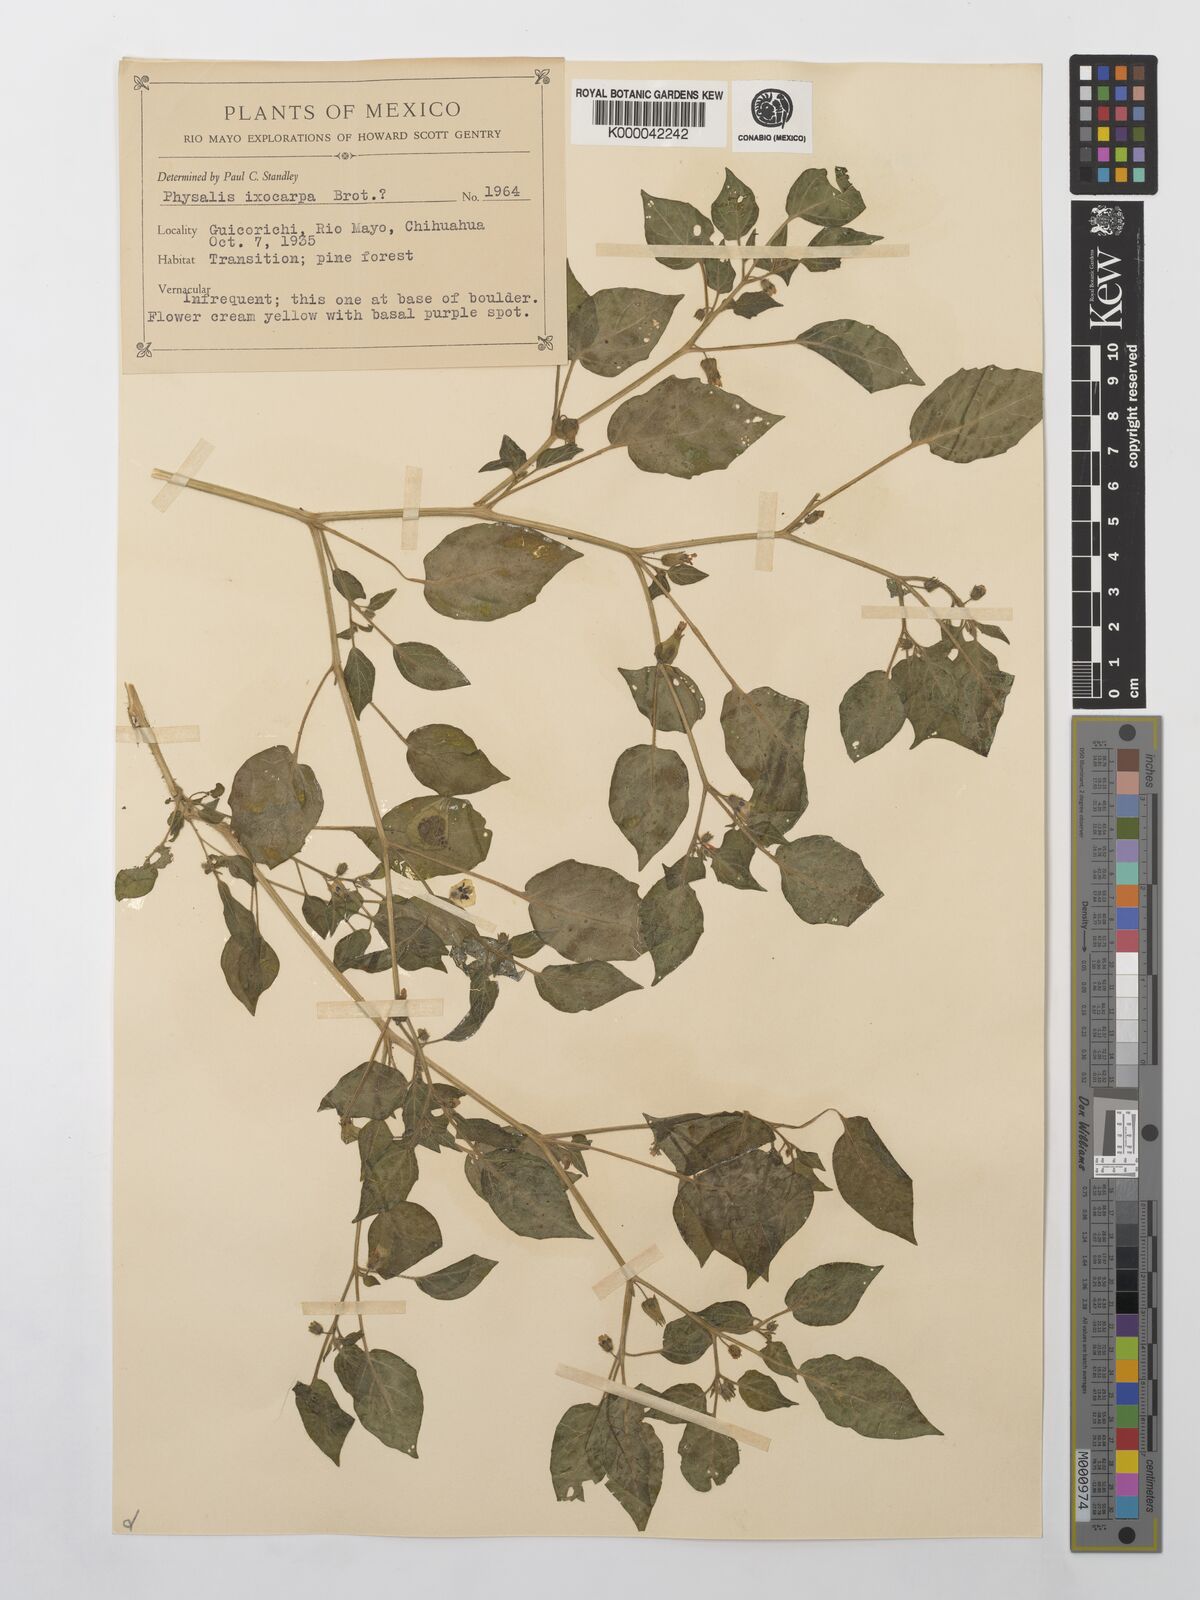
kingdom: Plantae
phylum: Tracheophyta
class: Magnoliopsida
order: Solanales
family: Solanaceae
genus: Physalis
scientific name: Physalis philadelphica
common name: Husk-tomato
